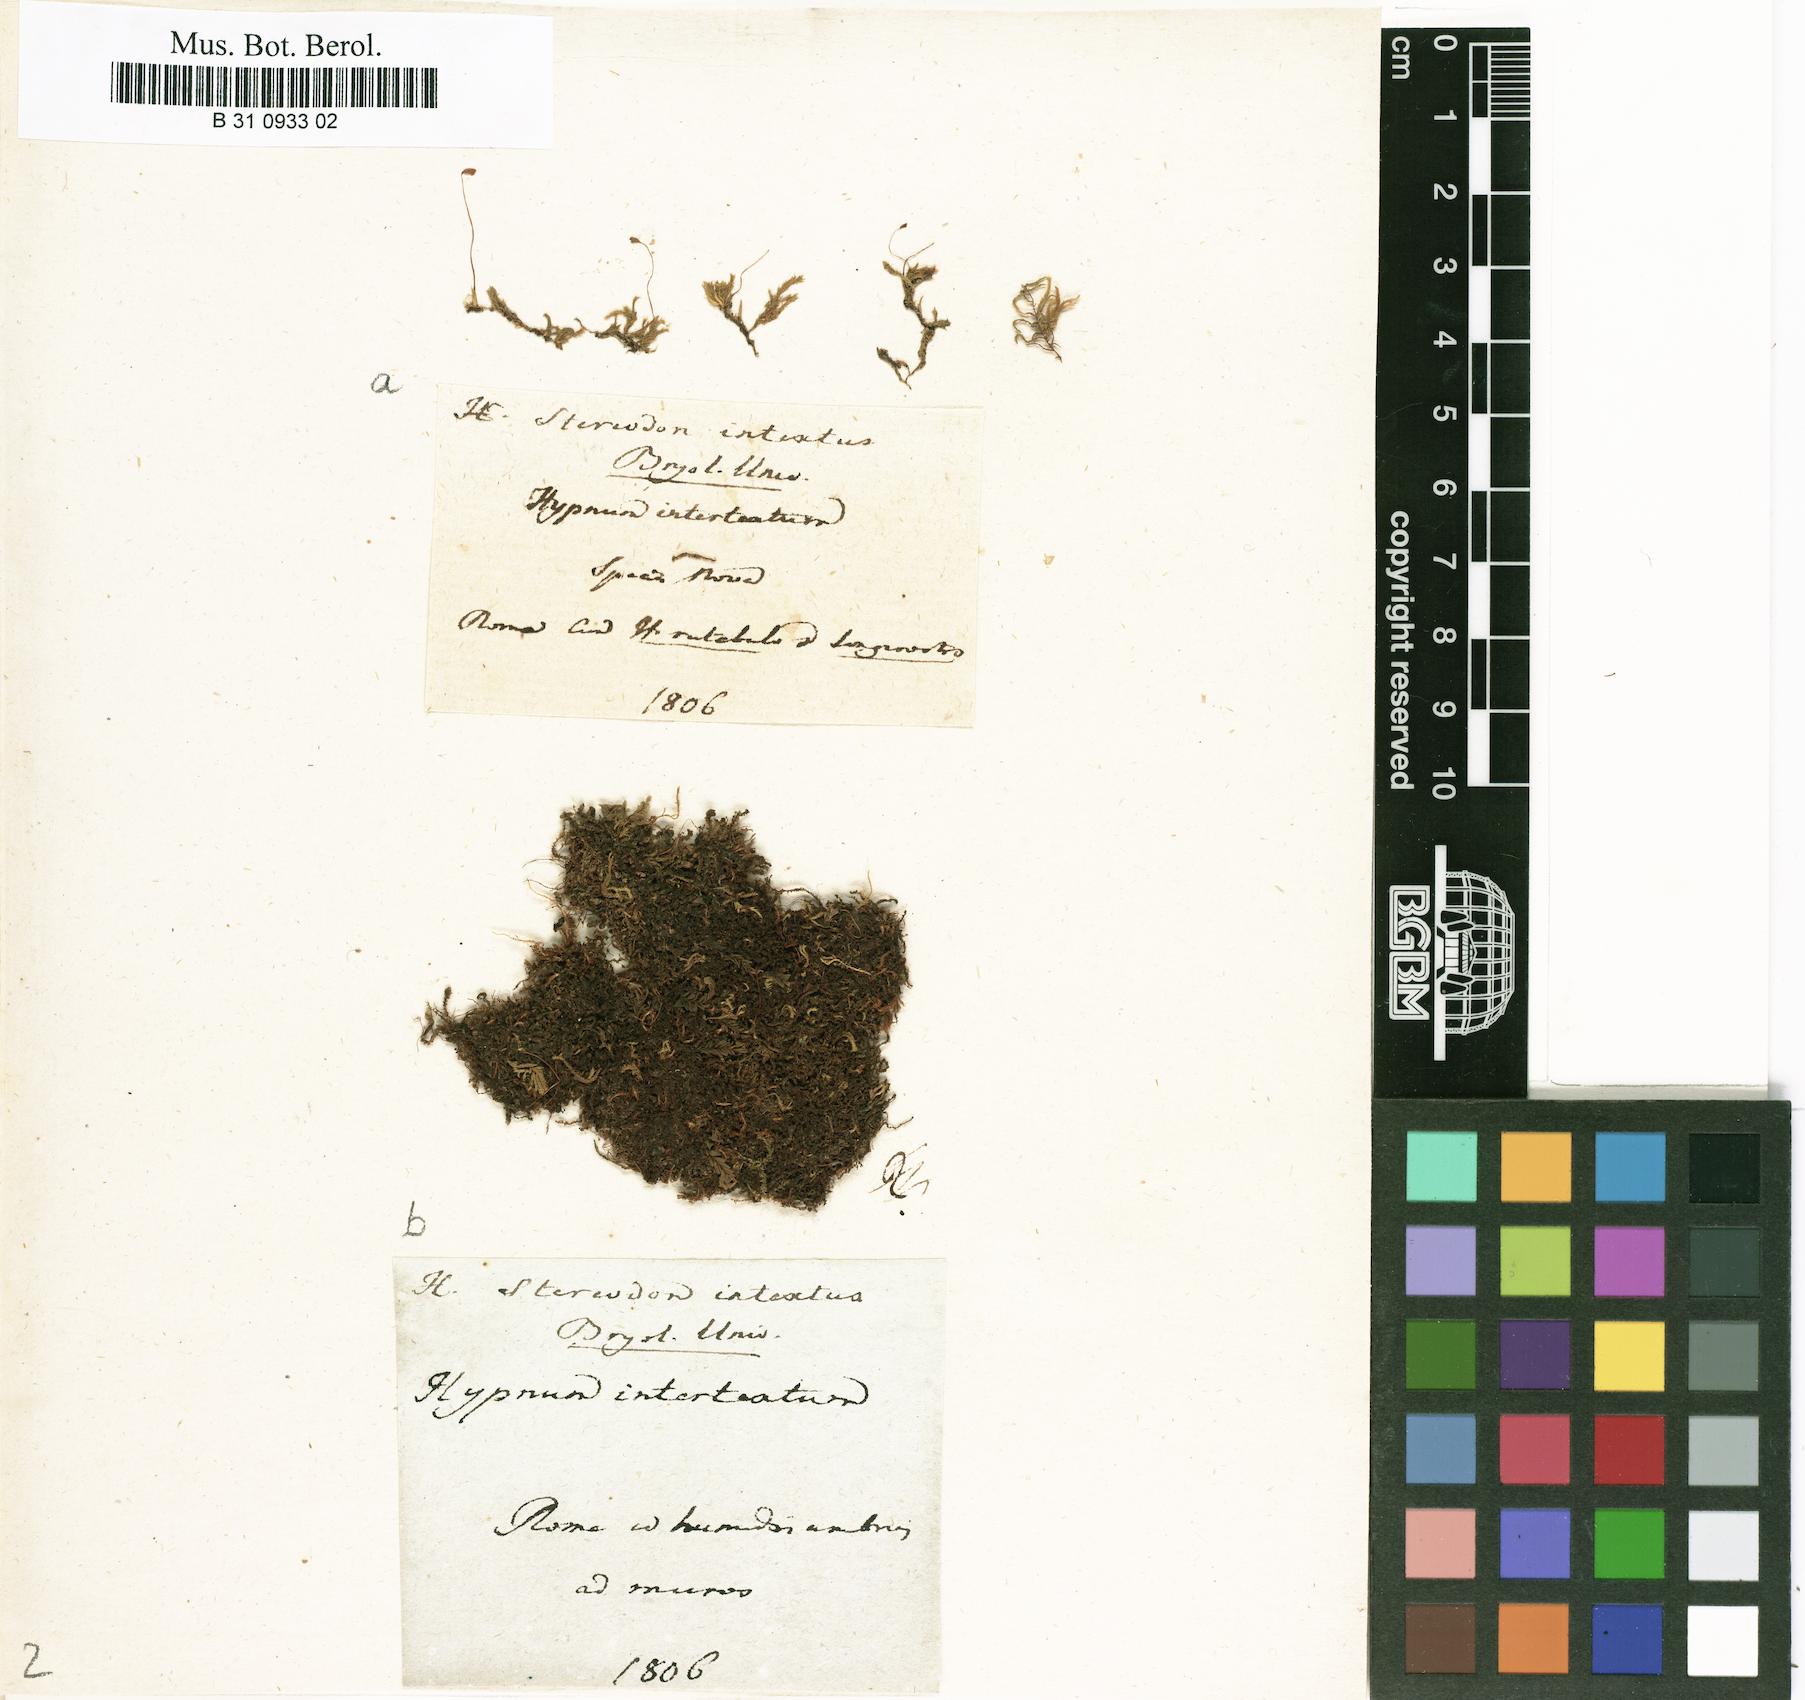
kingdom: Plantae
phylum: Bryophyta
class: Bryopsida
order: Hypnales
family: Hypnaceae
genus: Hypnum
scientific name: Hypnum intextum
